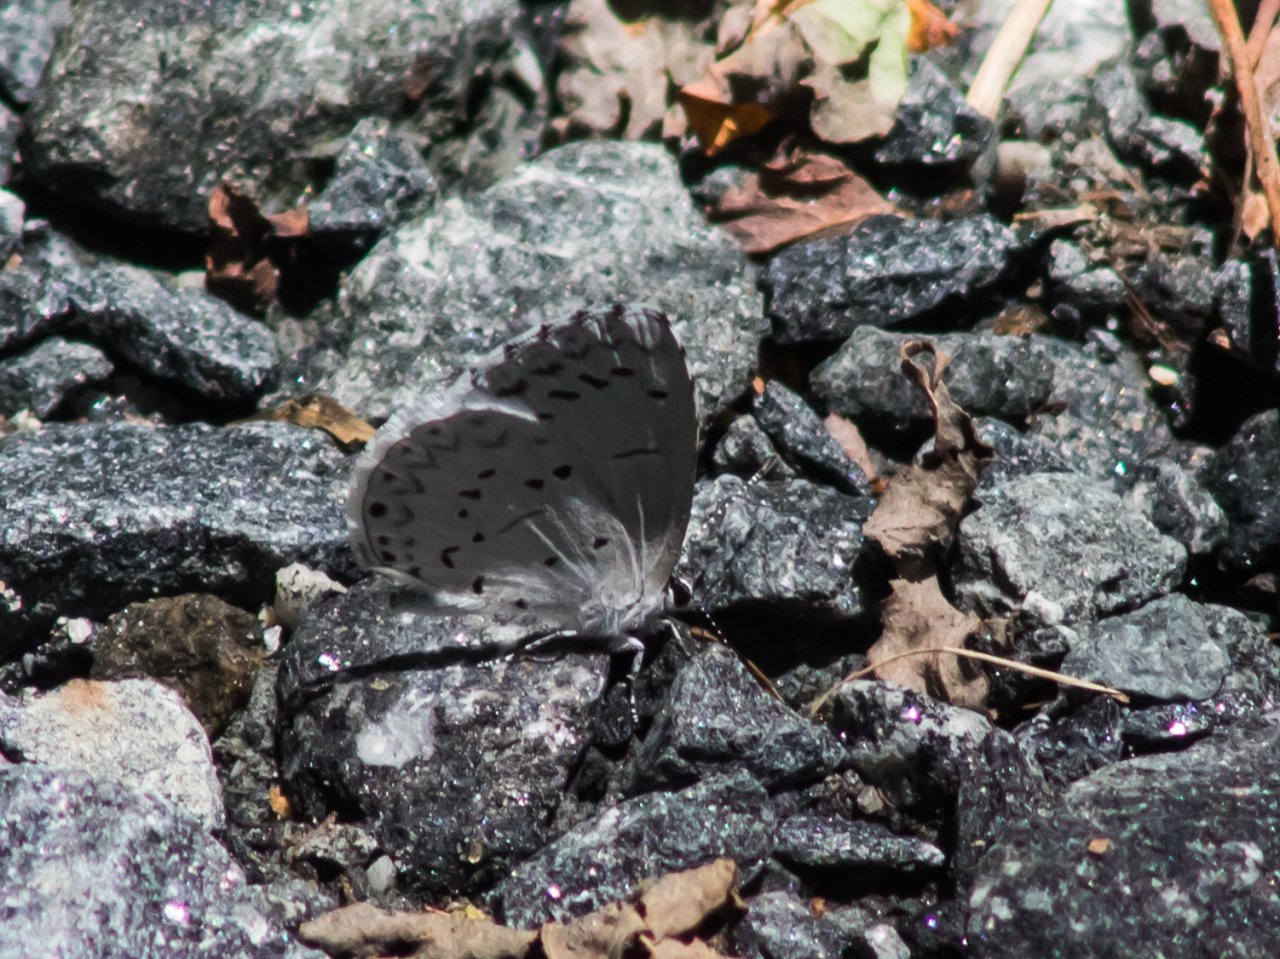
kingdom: Animalia
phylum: Arthropoda
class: Insecta
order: Lepidoptera
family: Lycaenidae
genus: Cyaniris
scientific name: Cyaniris neglecta
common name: Summer Azure
